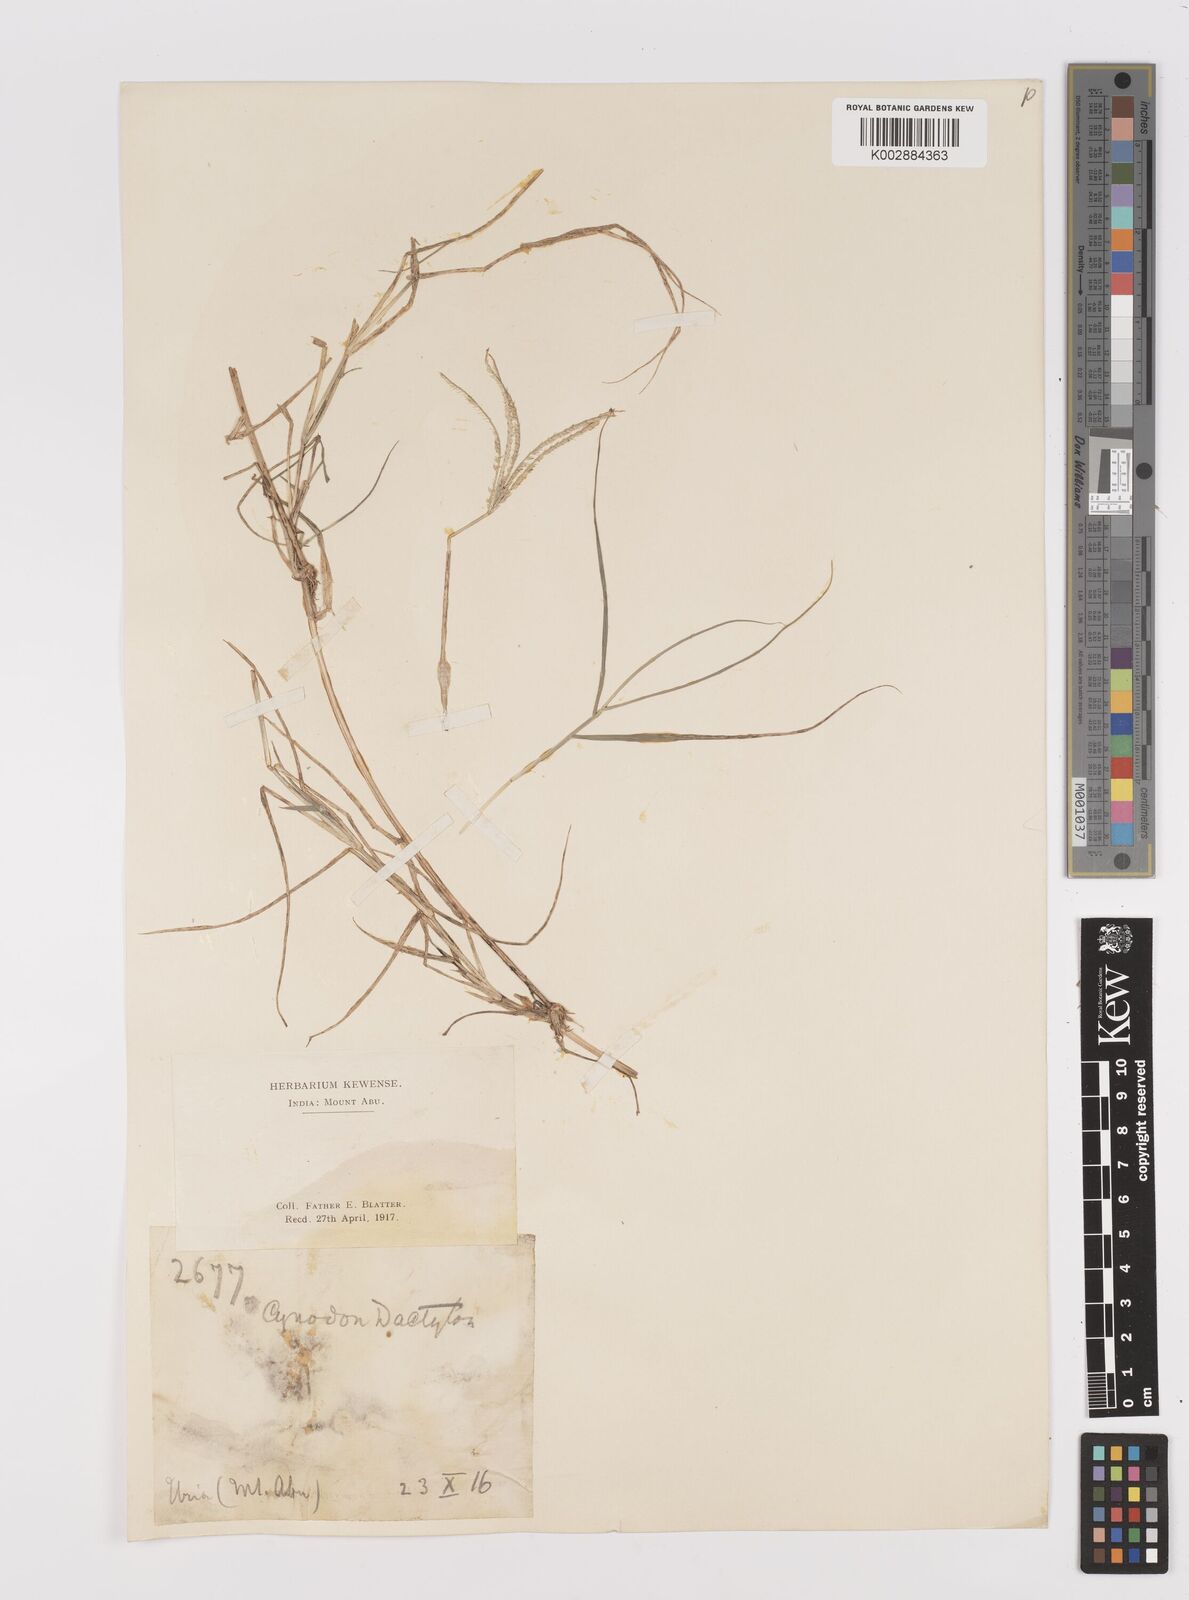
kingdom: Plantae
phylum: Tracheophyta
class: Liliopsida
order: Poales
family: Poaceae
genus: Cynodon
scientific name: Cynodon dactylon
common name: Bermuda grass
